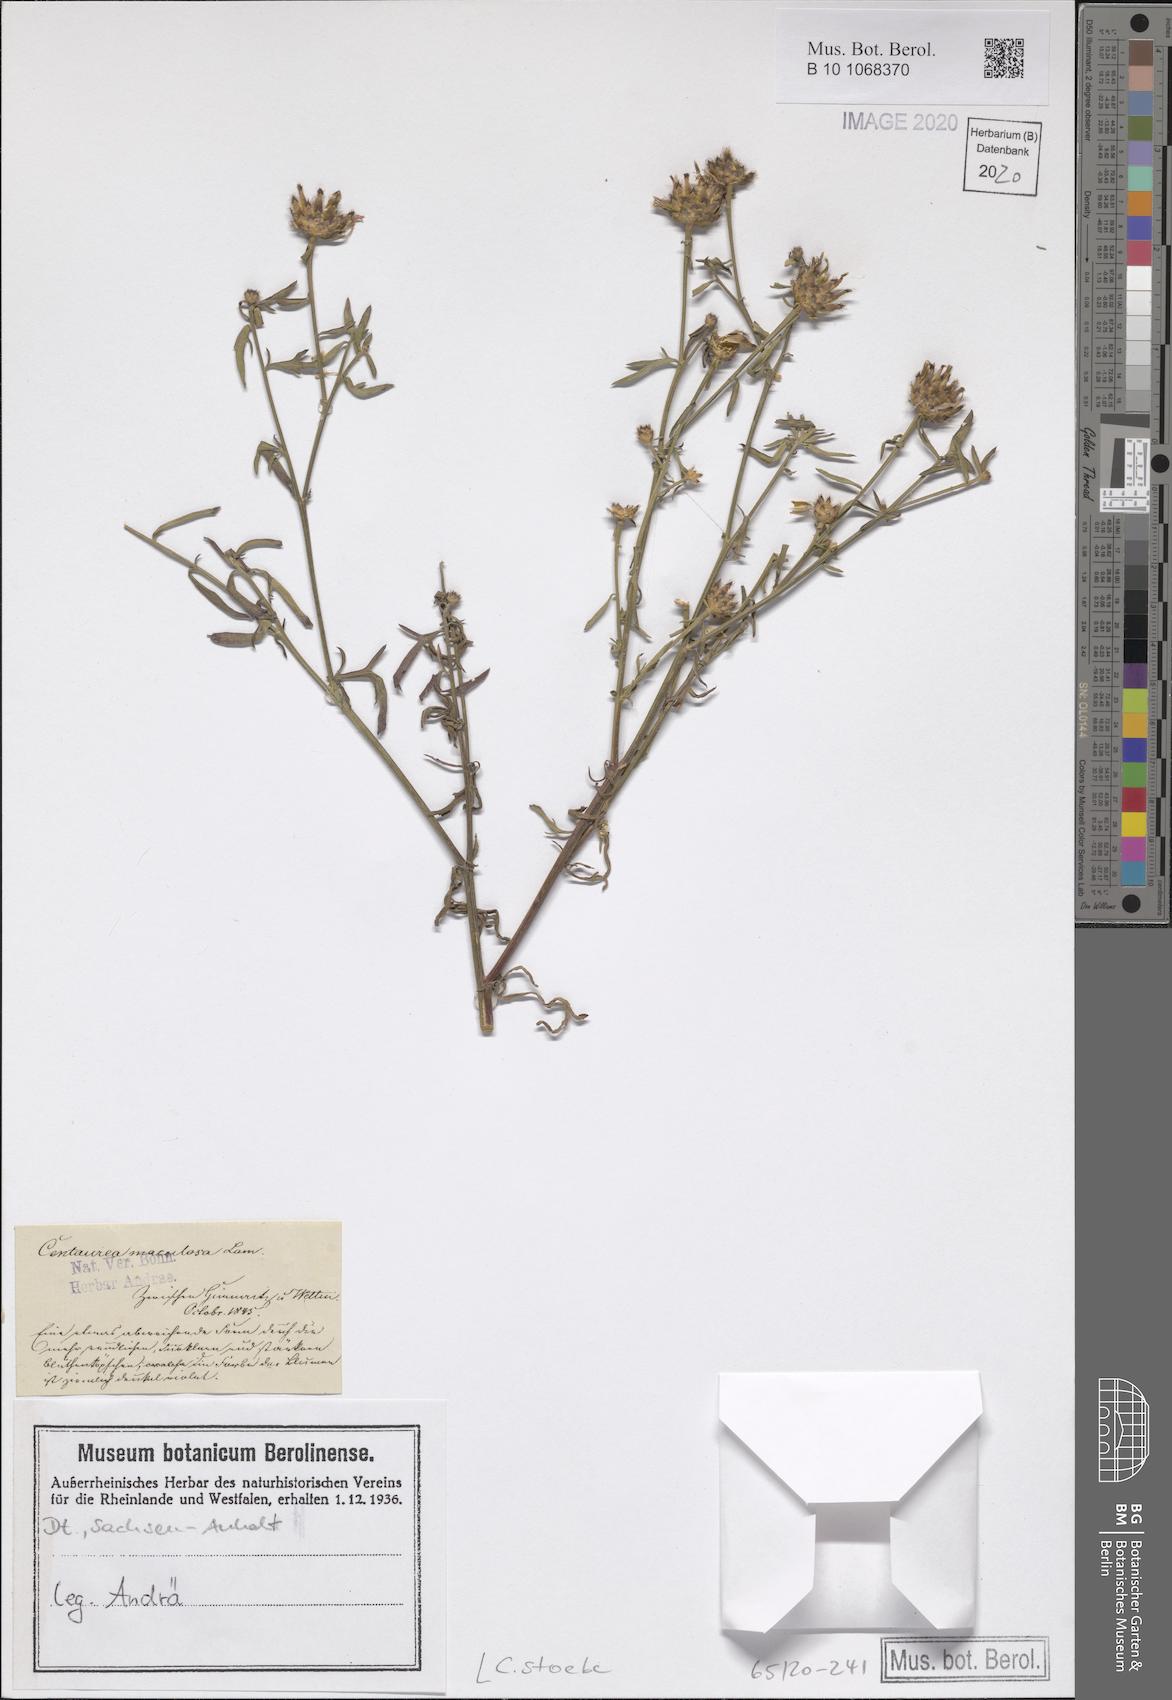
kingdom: Plantae
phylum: Tracheophyta
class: Magnoliopsida
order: Asterales
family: Asteraceae
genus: Centaurea
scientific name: Centaurea stoebe
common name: Spotted knapweed
